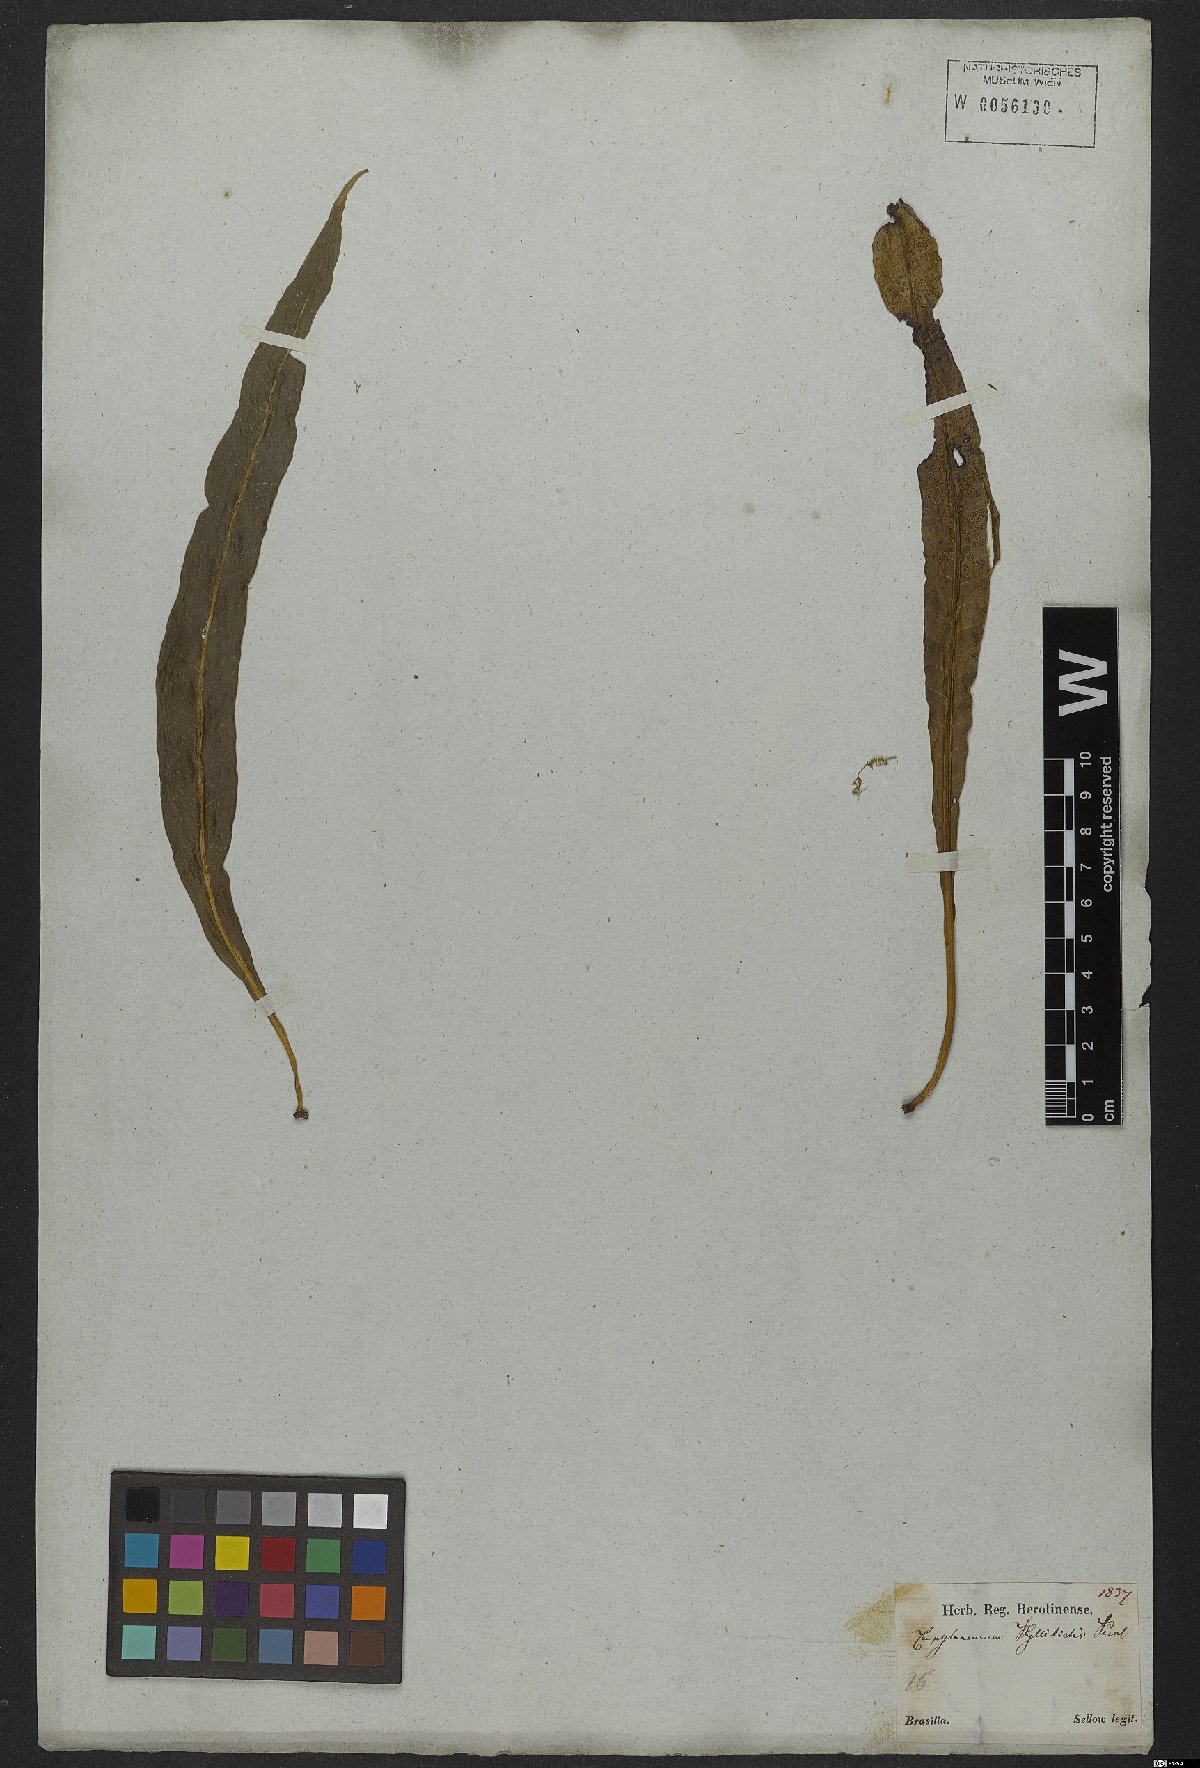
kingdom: Plantae
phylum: Tracheophyta
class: Polypodiopsida
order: Polypodiales
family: Polypodiaceae
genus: Campyloneurum
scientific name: Campyloneurum phyllitidis
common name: Cow-tongue fern
